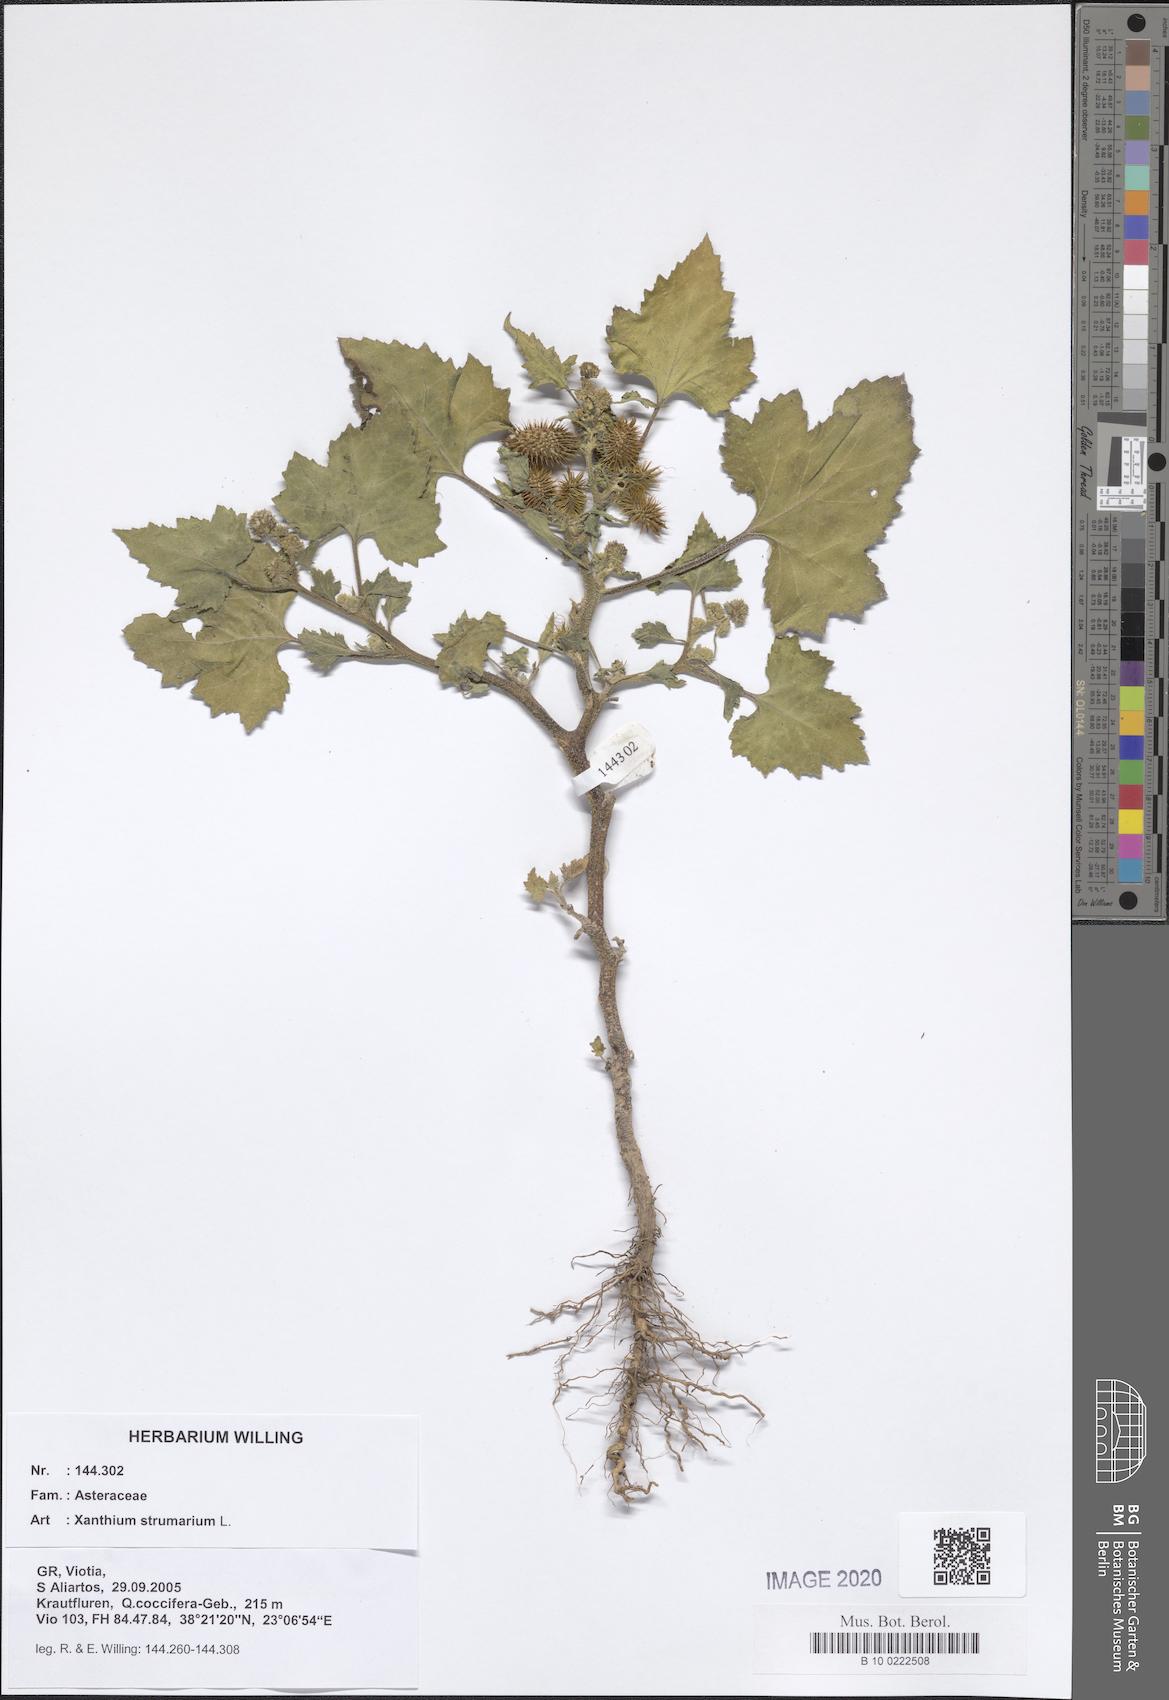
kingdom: Plantae
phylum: Tracheophyta
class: Magnoliopsida
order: Asterales
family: Asteraceae
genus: Xanthium
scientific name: Xanthium strumarium
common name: Rough cocklebur
